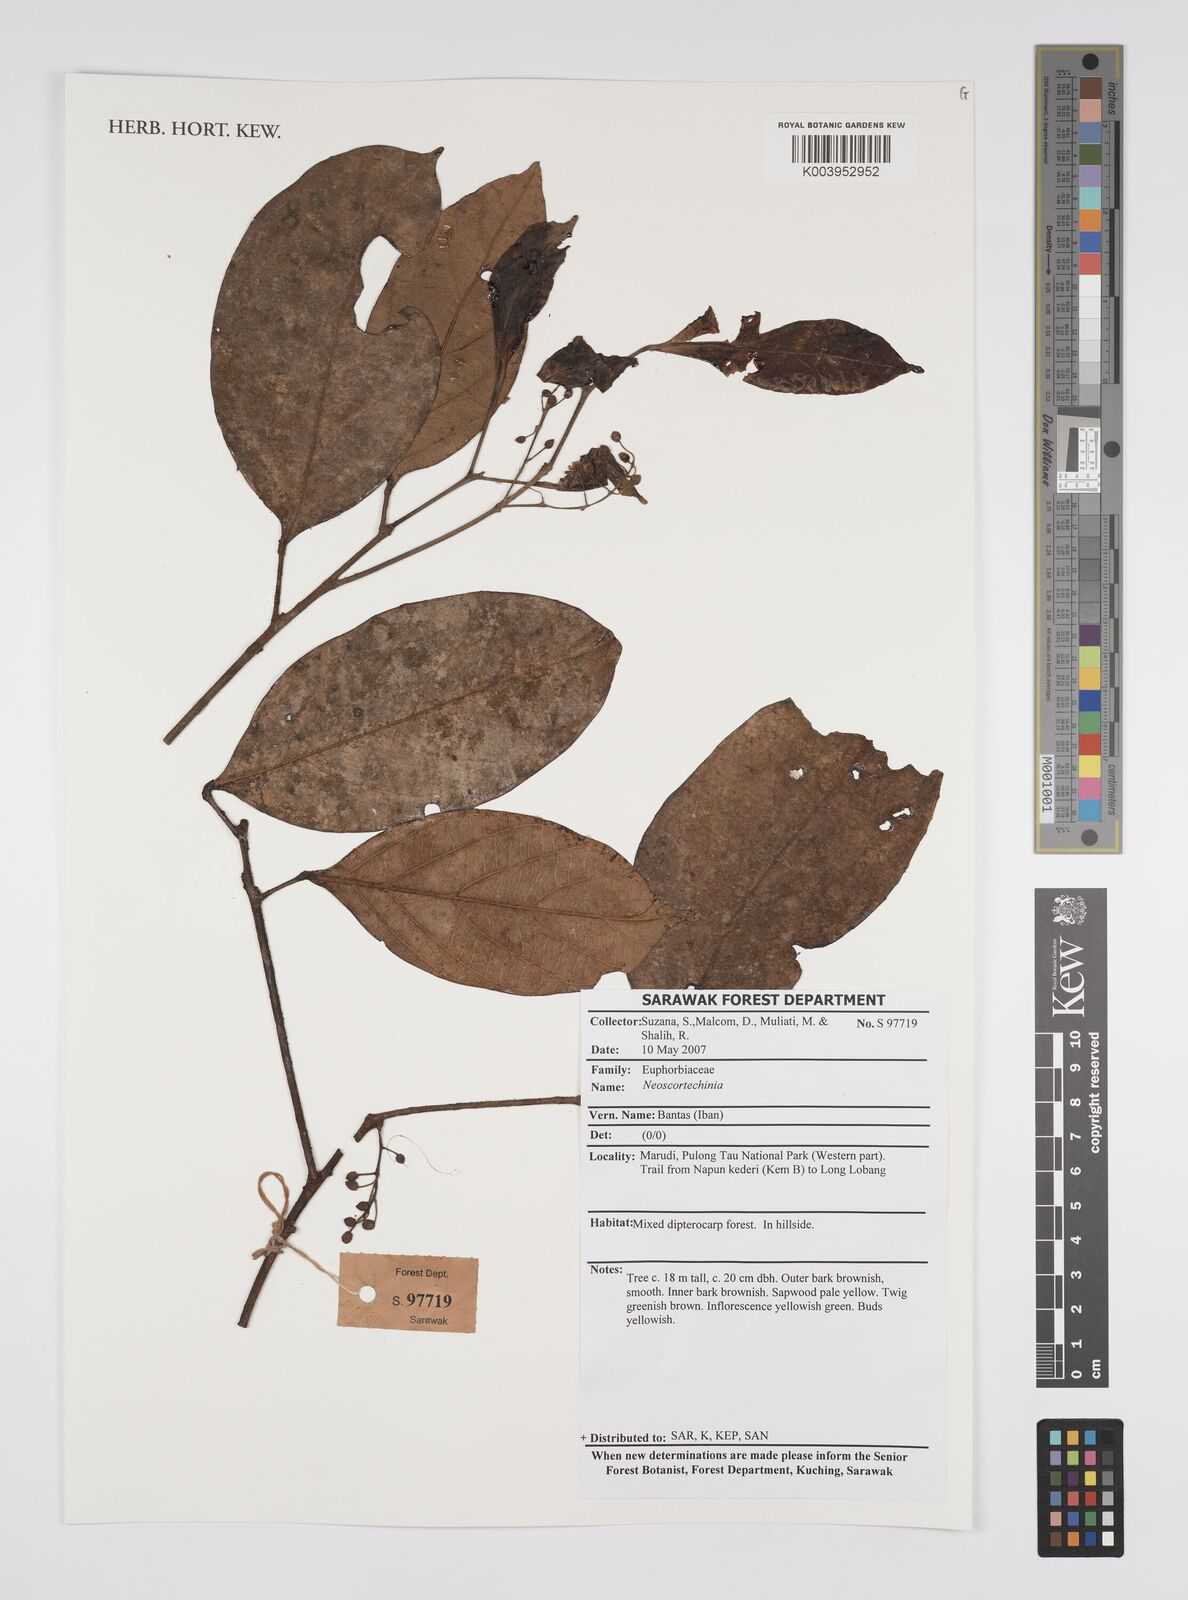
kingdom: Plantae
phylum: Tracheophyta
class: Magnoliopsida
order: Malpighiales
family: Euphorbiaceae
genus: Neoscortechinia
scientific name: Neoscortechinia
